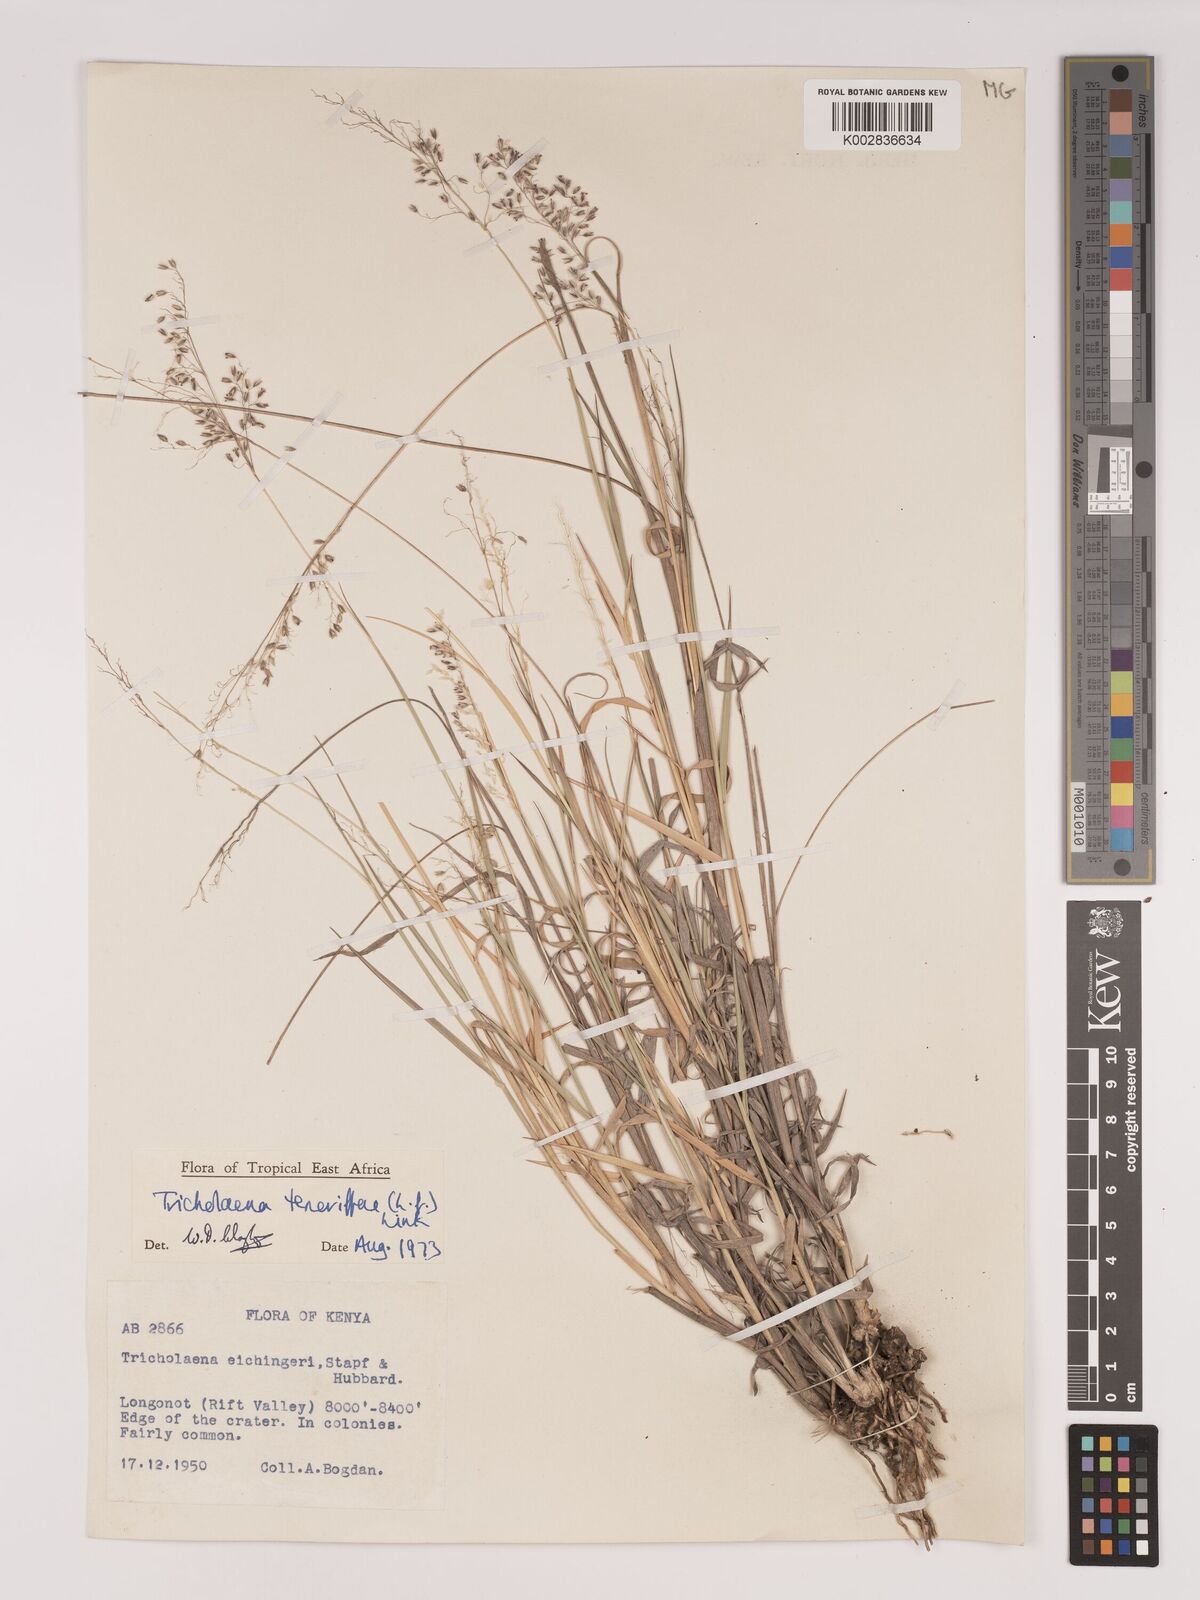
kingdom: Plantae
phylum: Tracheophyta
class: Liliopsida
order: Poales
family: Poaceae
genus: Tricholaena
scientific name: Tricholaena teneriffae
